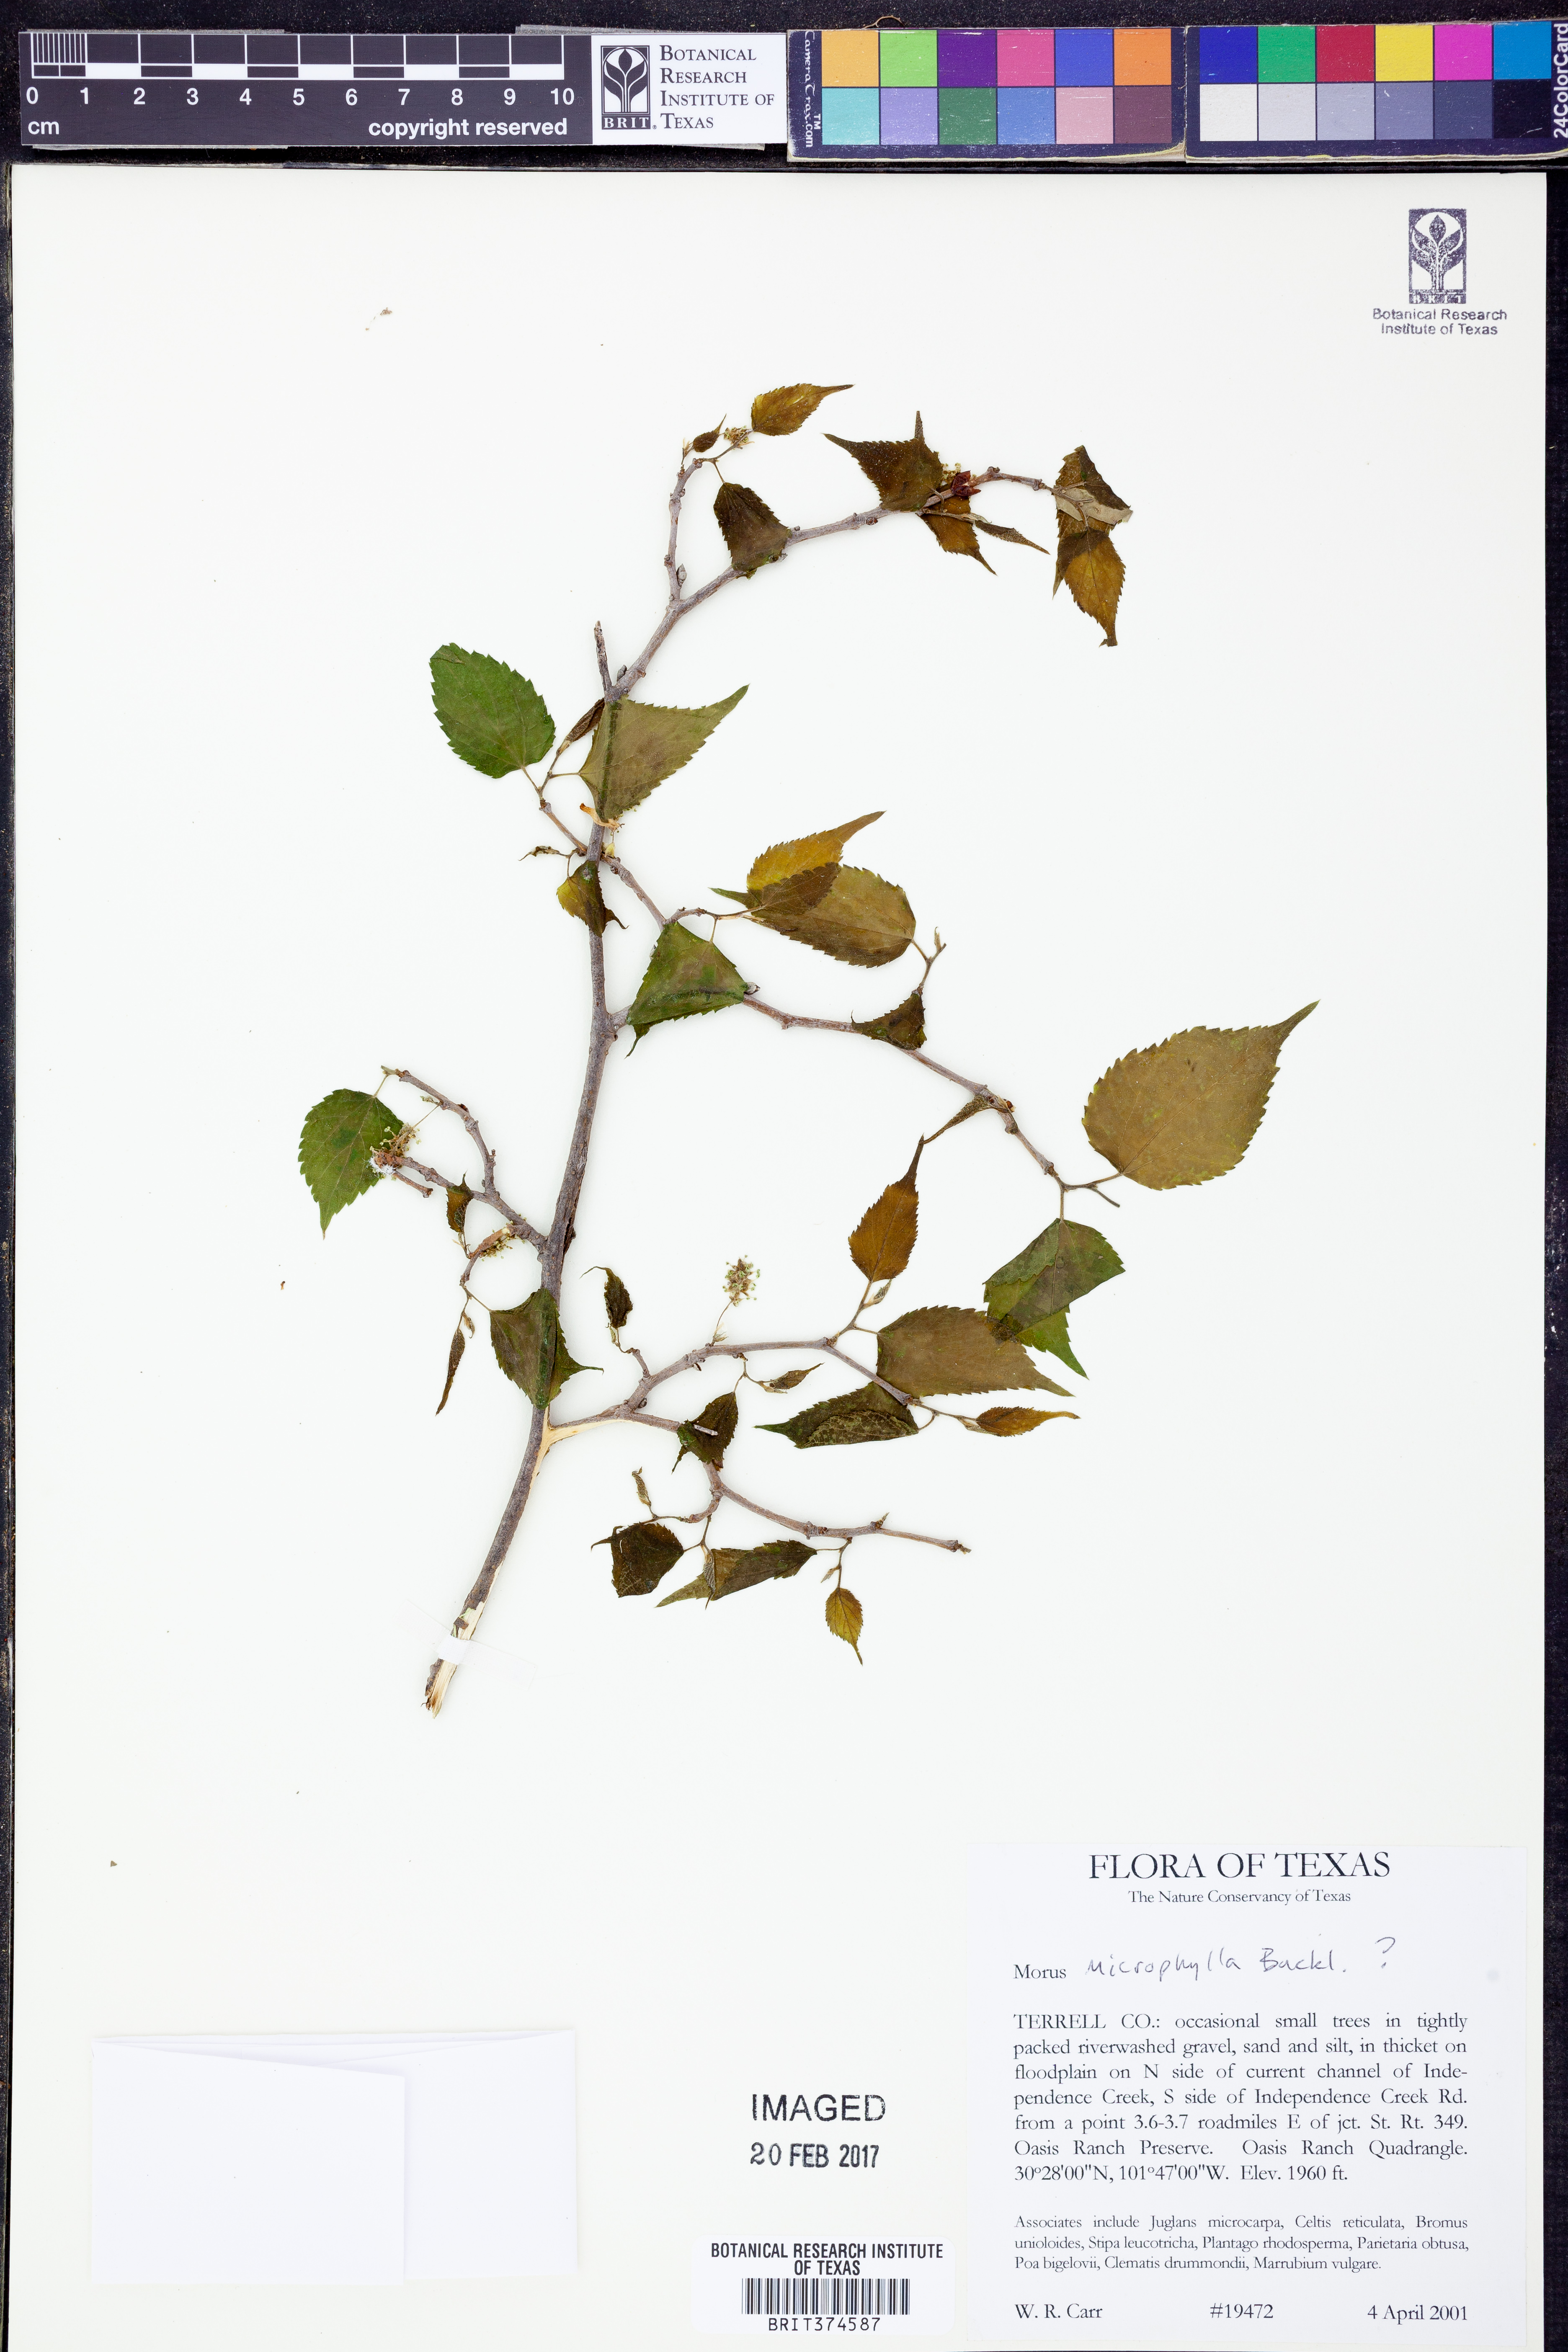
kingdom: Plantae
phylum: Tracheophyta
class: Magnoliopsida
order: Rosales
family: Moraceae
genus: Morus
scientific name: Morus microphylla
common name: Mexican mulberry
